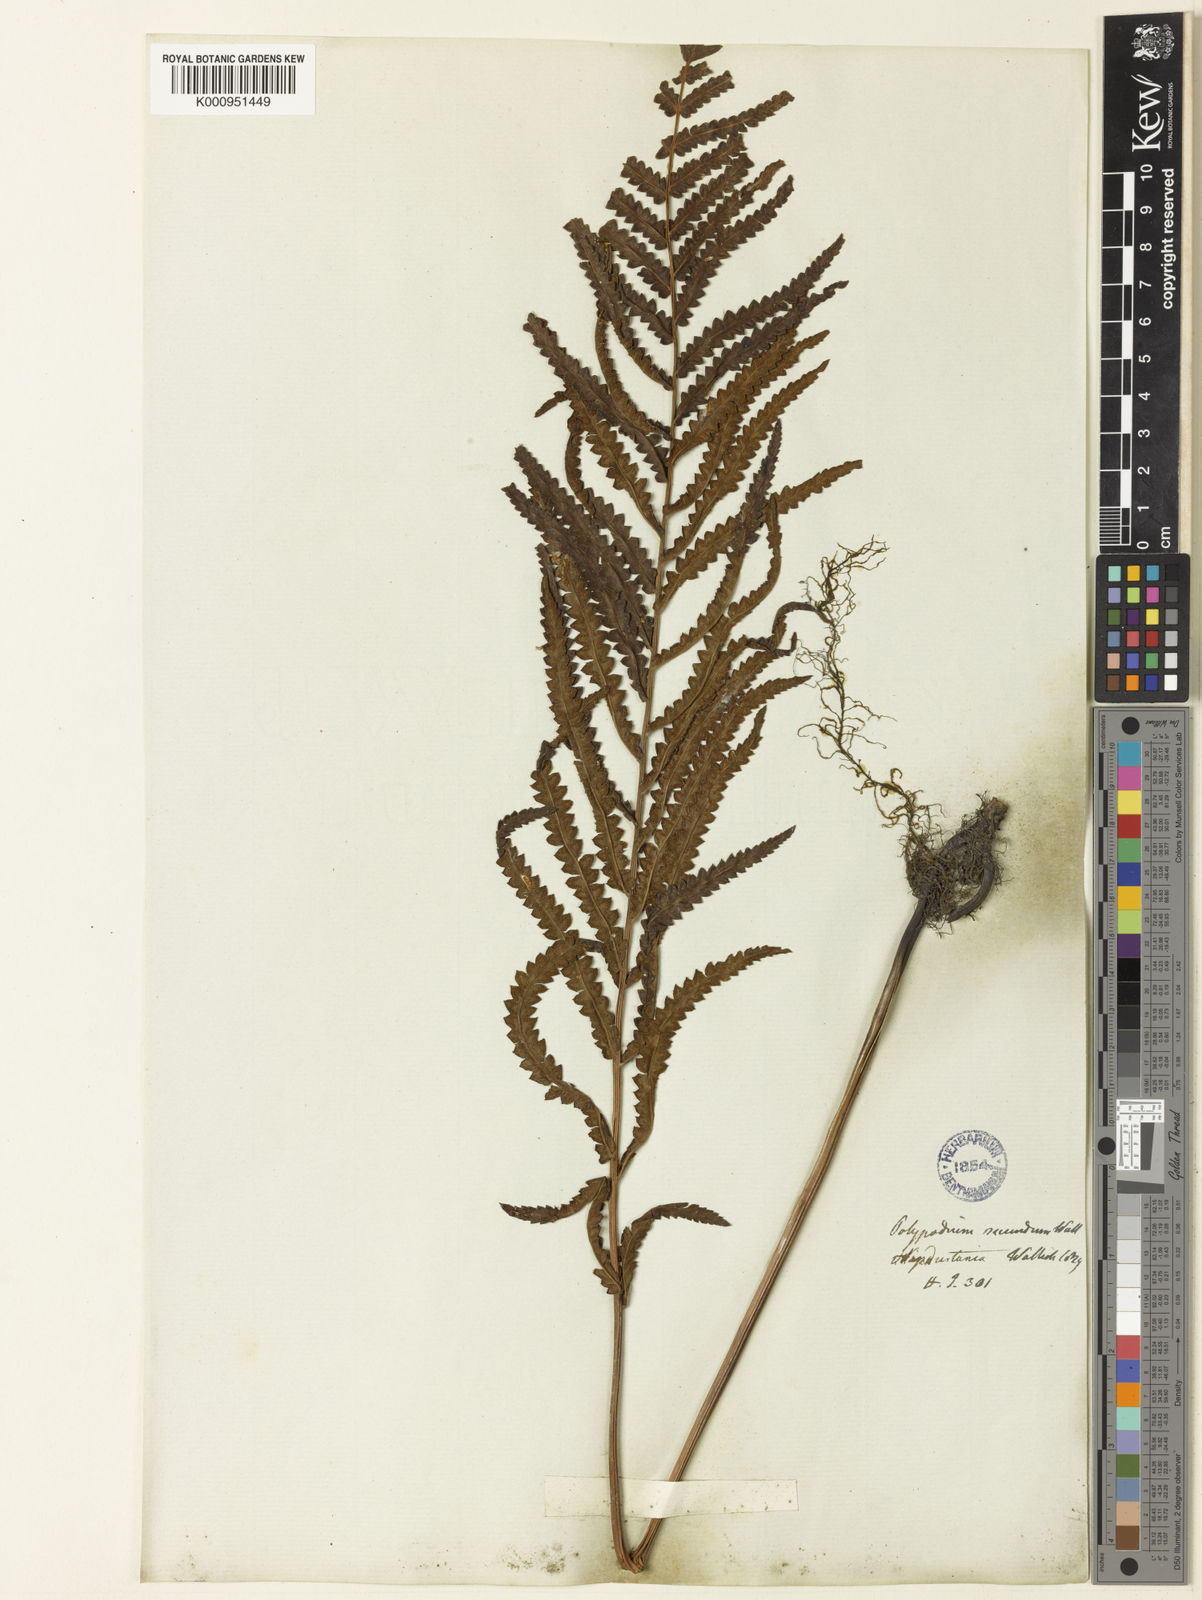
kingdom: Plantae
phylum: Tracheophyta
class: Polypodiopsida
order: Polypodiales
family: Thelypteridaceae
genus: Cyclosorus
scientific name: Cyclosorus interruptus
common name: Neke fern
